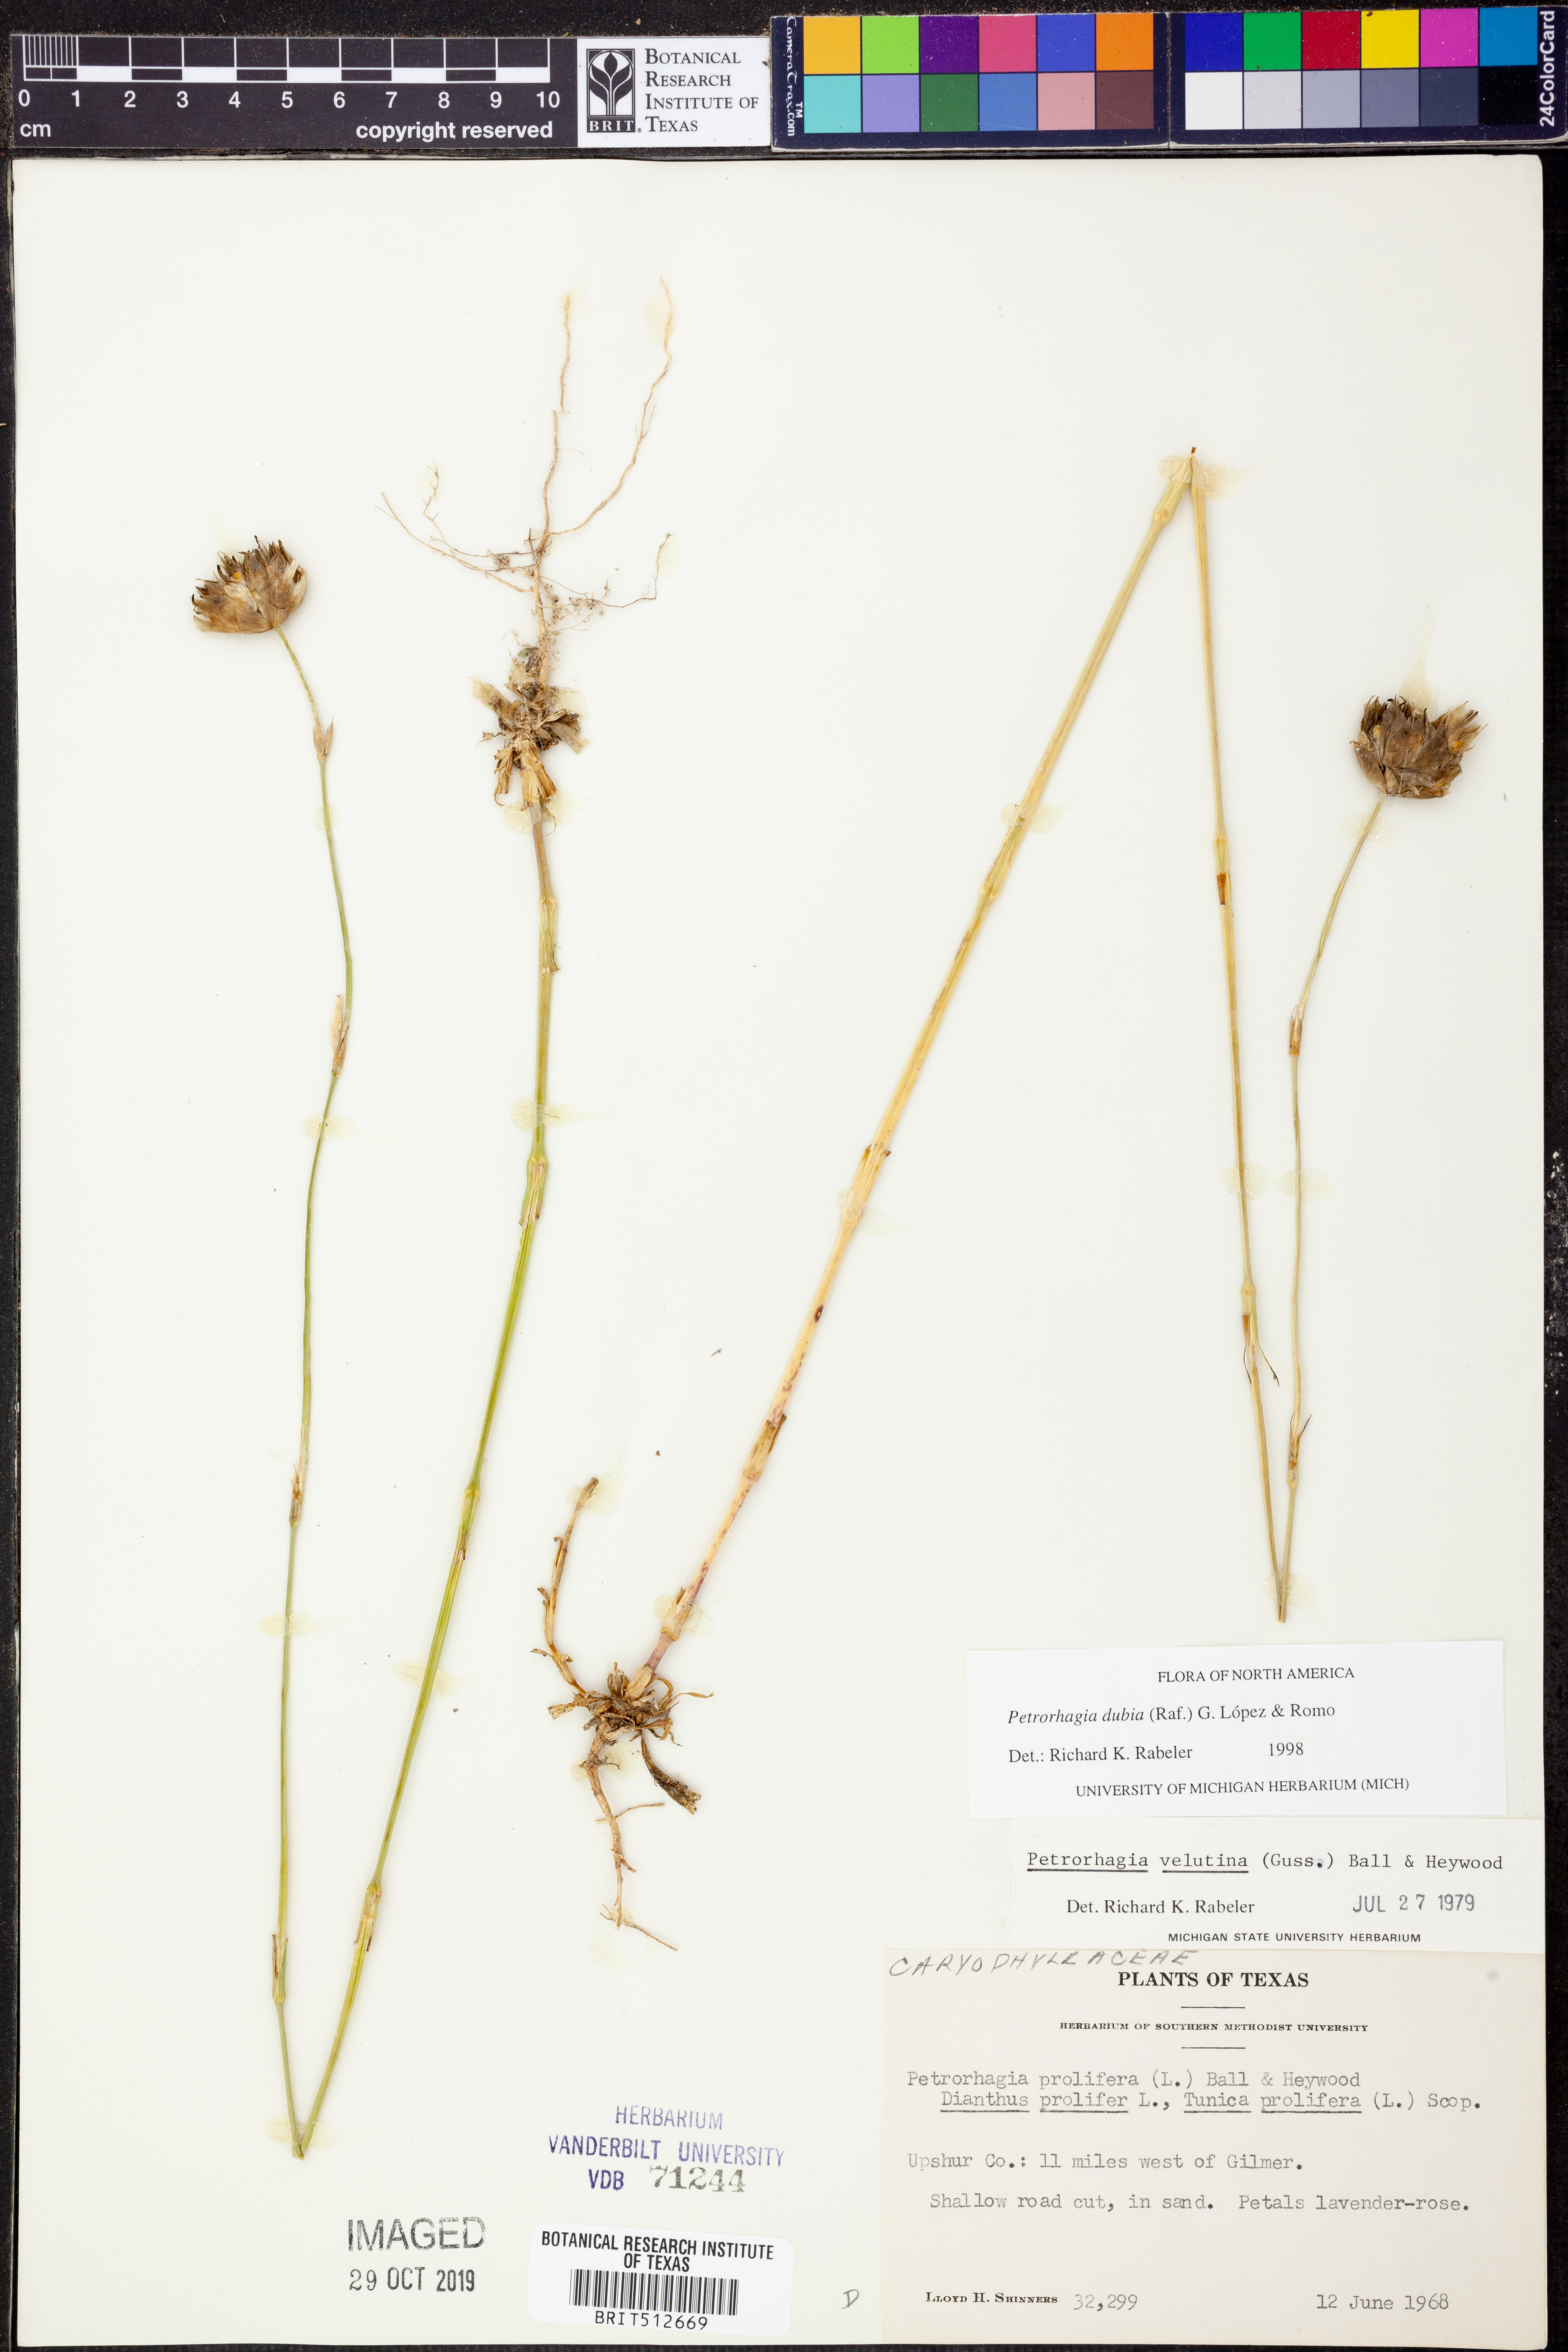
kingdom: Plantae
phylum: Tracheophyta
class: Magnoliopsida
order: Caryophyllales
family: Caryophyllaceae
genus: Petrorhagia
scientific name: Petrorhagia dubia
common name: Hairypink
